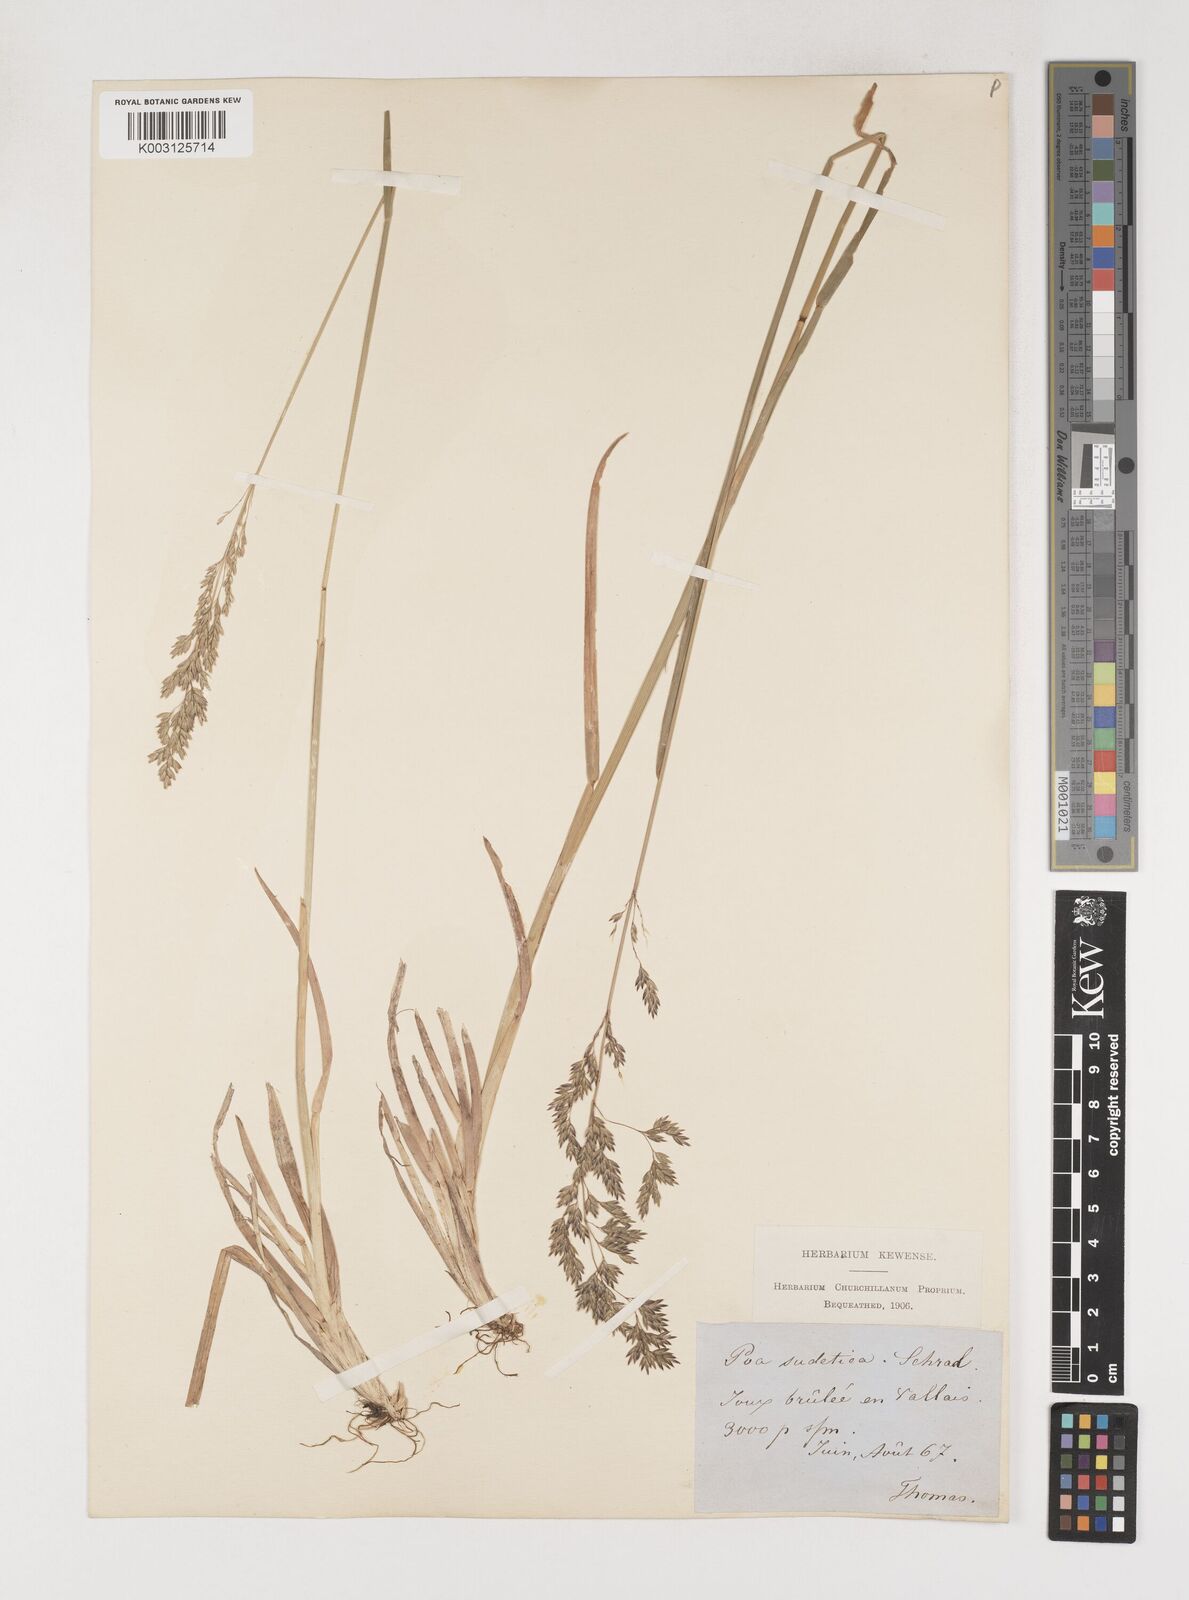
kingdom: Plantae
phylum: Tracheophyta
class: Liliopsida
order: Poales
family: Poaceae
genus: Poa
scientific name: Poa chaixii
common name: Broad-leaved meadow-grass
